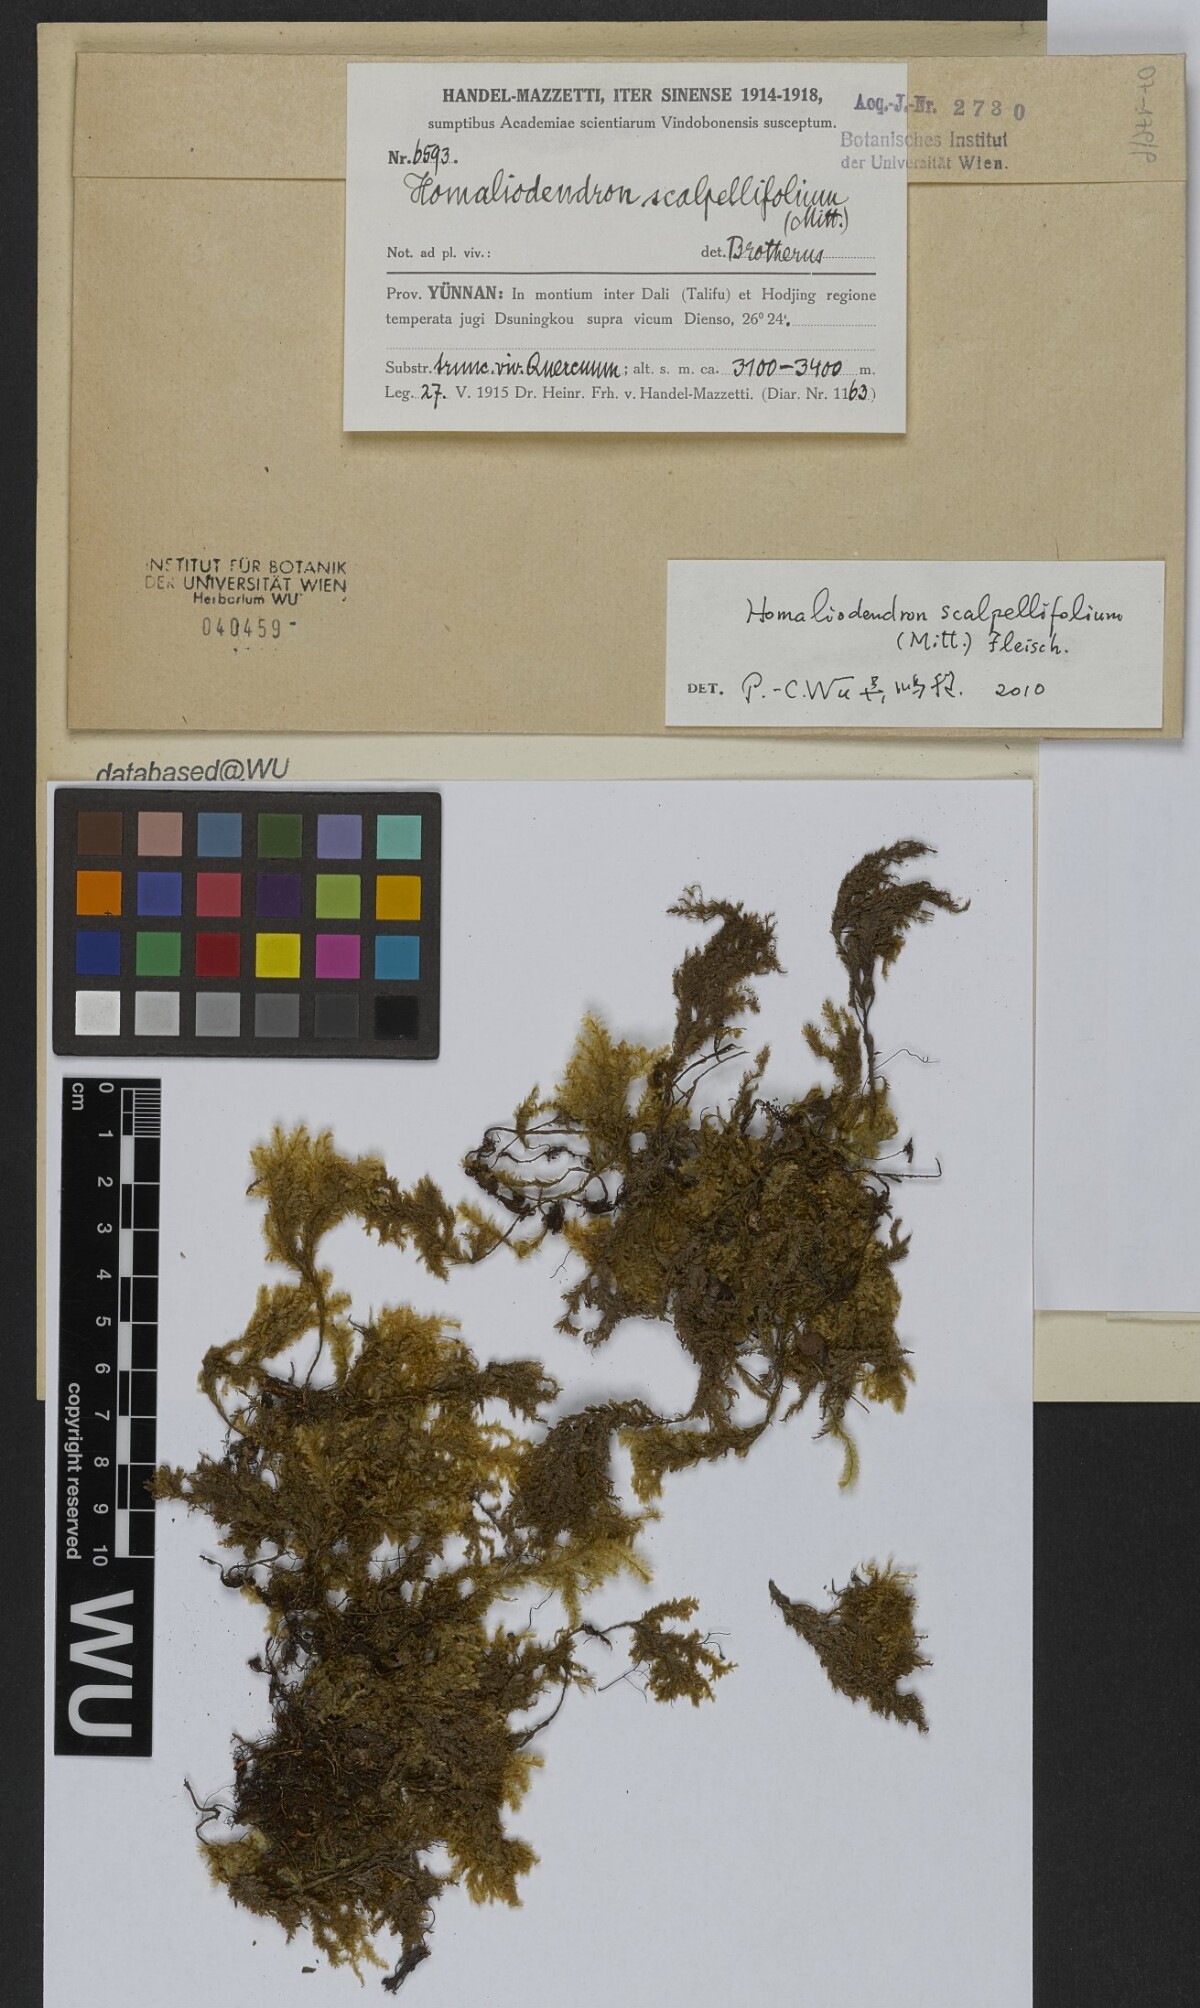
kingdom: Plantae
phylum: Bryophyta
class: Bryopsida
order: Hypnales
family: Neckeraceae
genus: Homaliodendron
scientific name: Homaliodendron flabellatum
